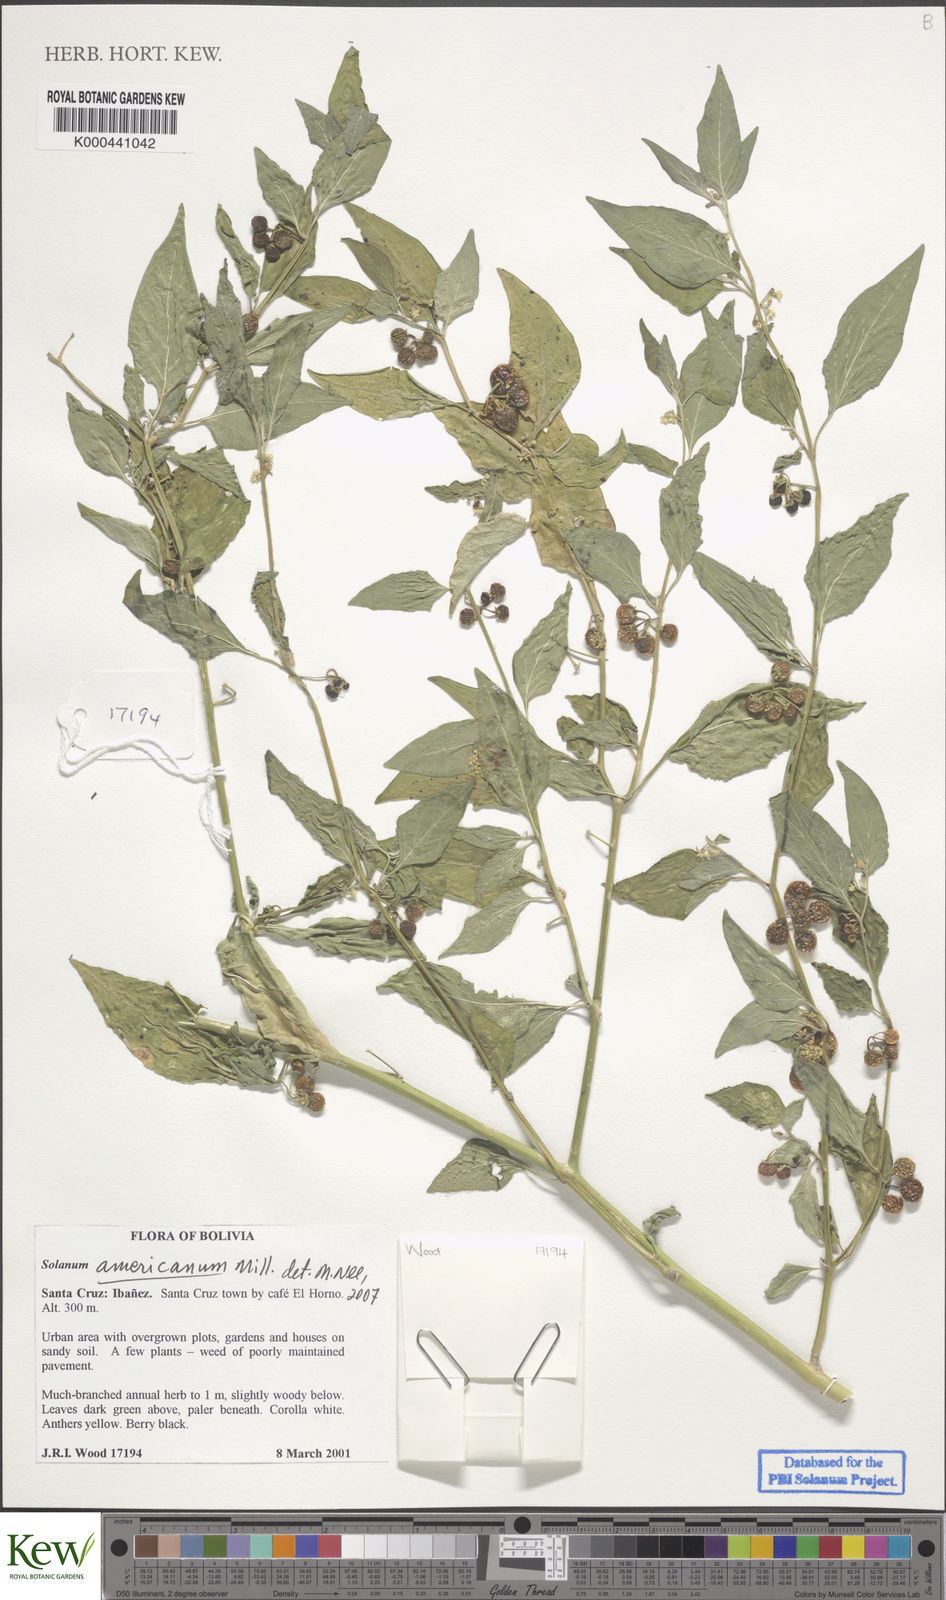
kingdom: Plantae
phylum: Tracheophyta
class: Magnoliopsida
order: Solanales
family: Solanaceae
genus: Solanum
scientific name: Solanum americanum
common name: American black nightshade
